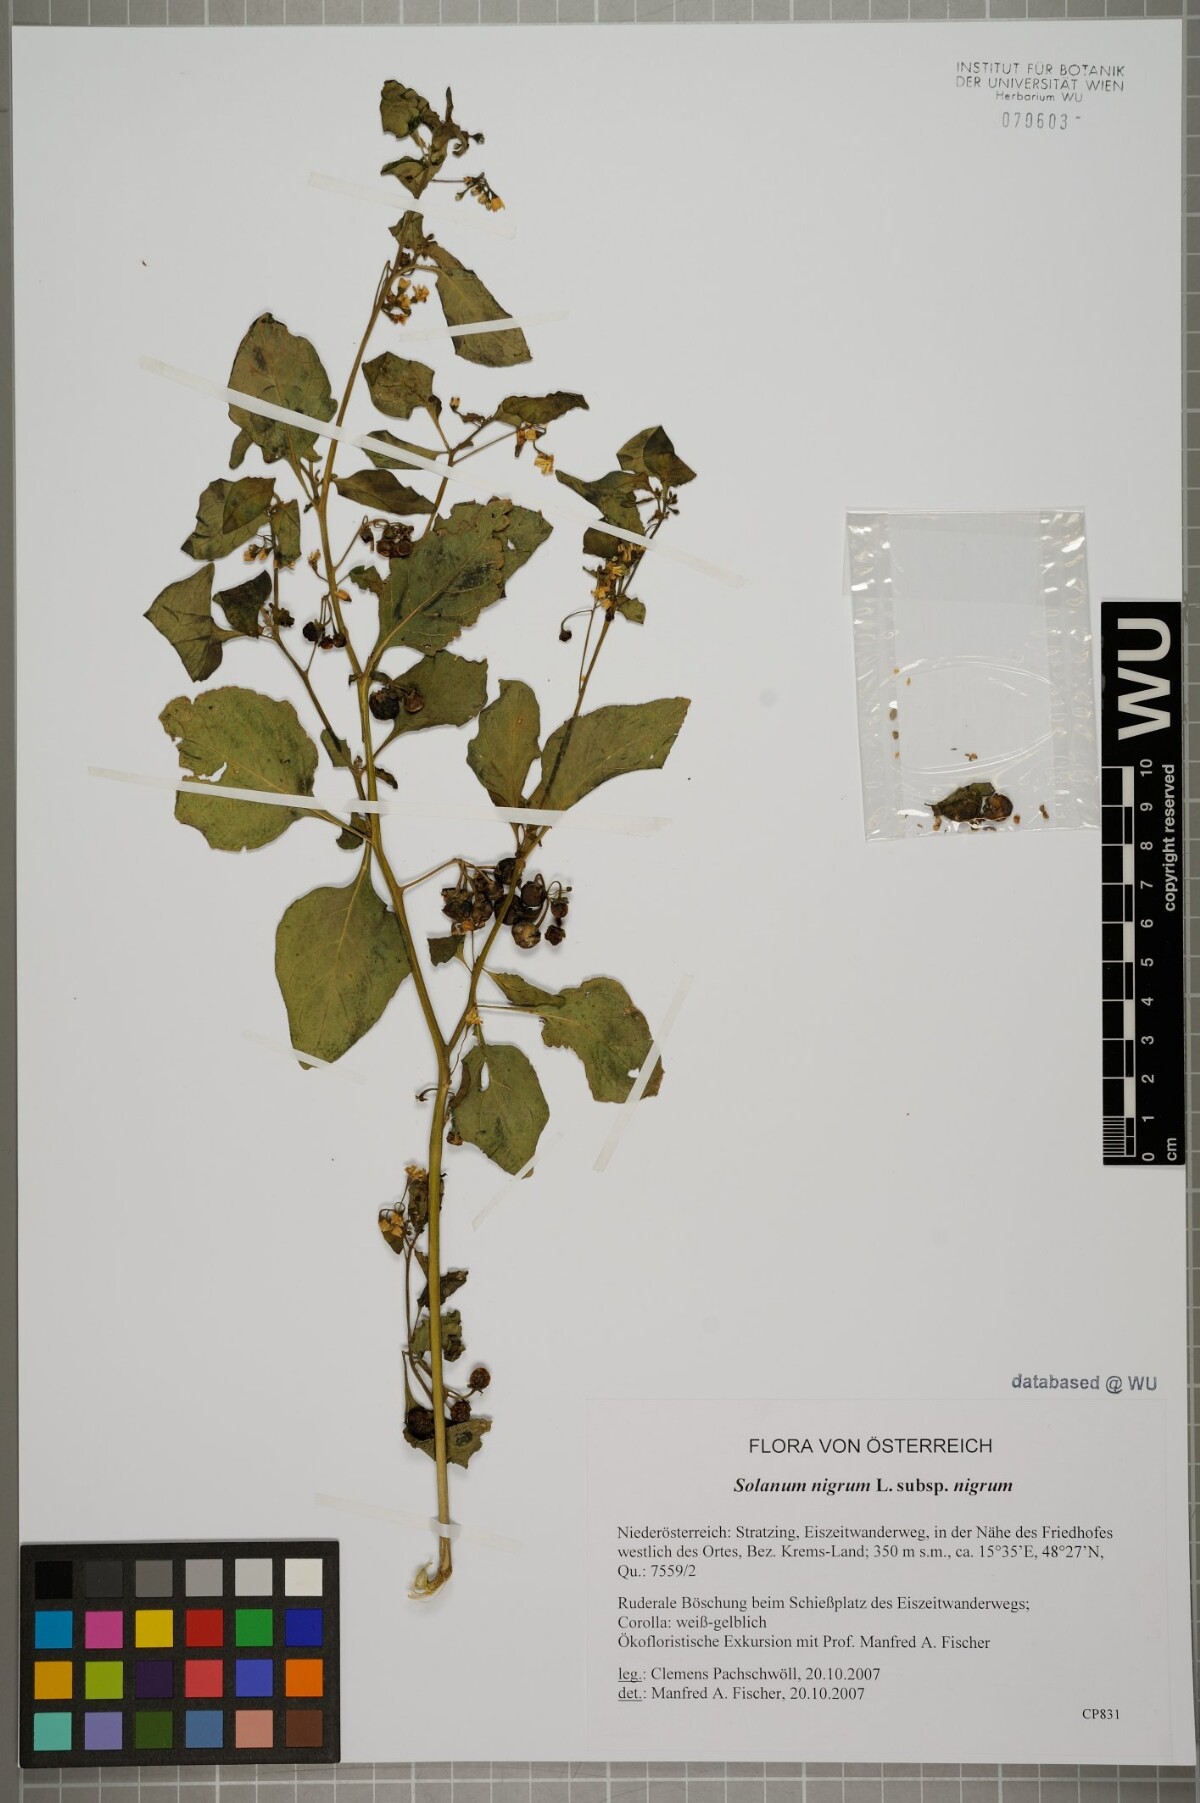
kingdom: Plantae
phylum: Tracheophyta
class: Magnoliopsida
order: Solanales
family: Solanaceae
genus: Solanum
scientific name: Solanum nigrum
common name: Black nightshade
